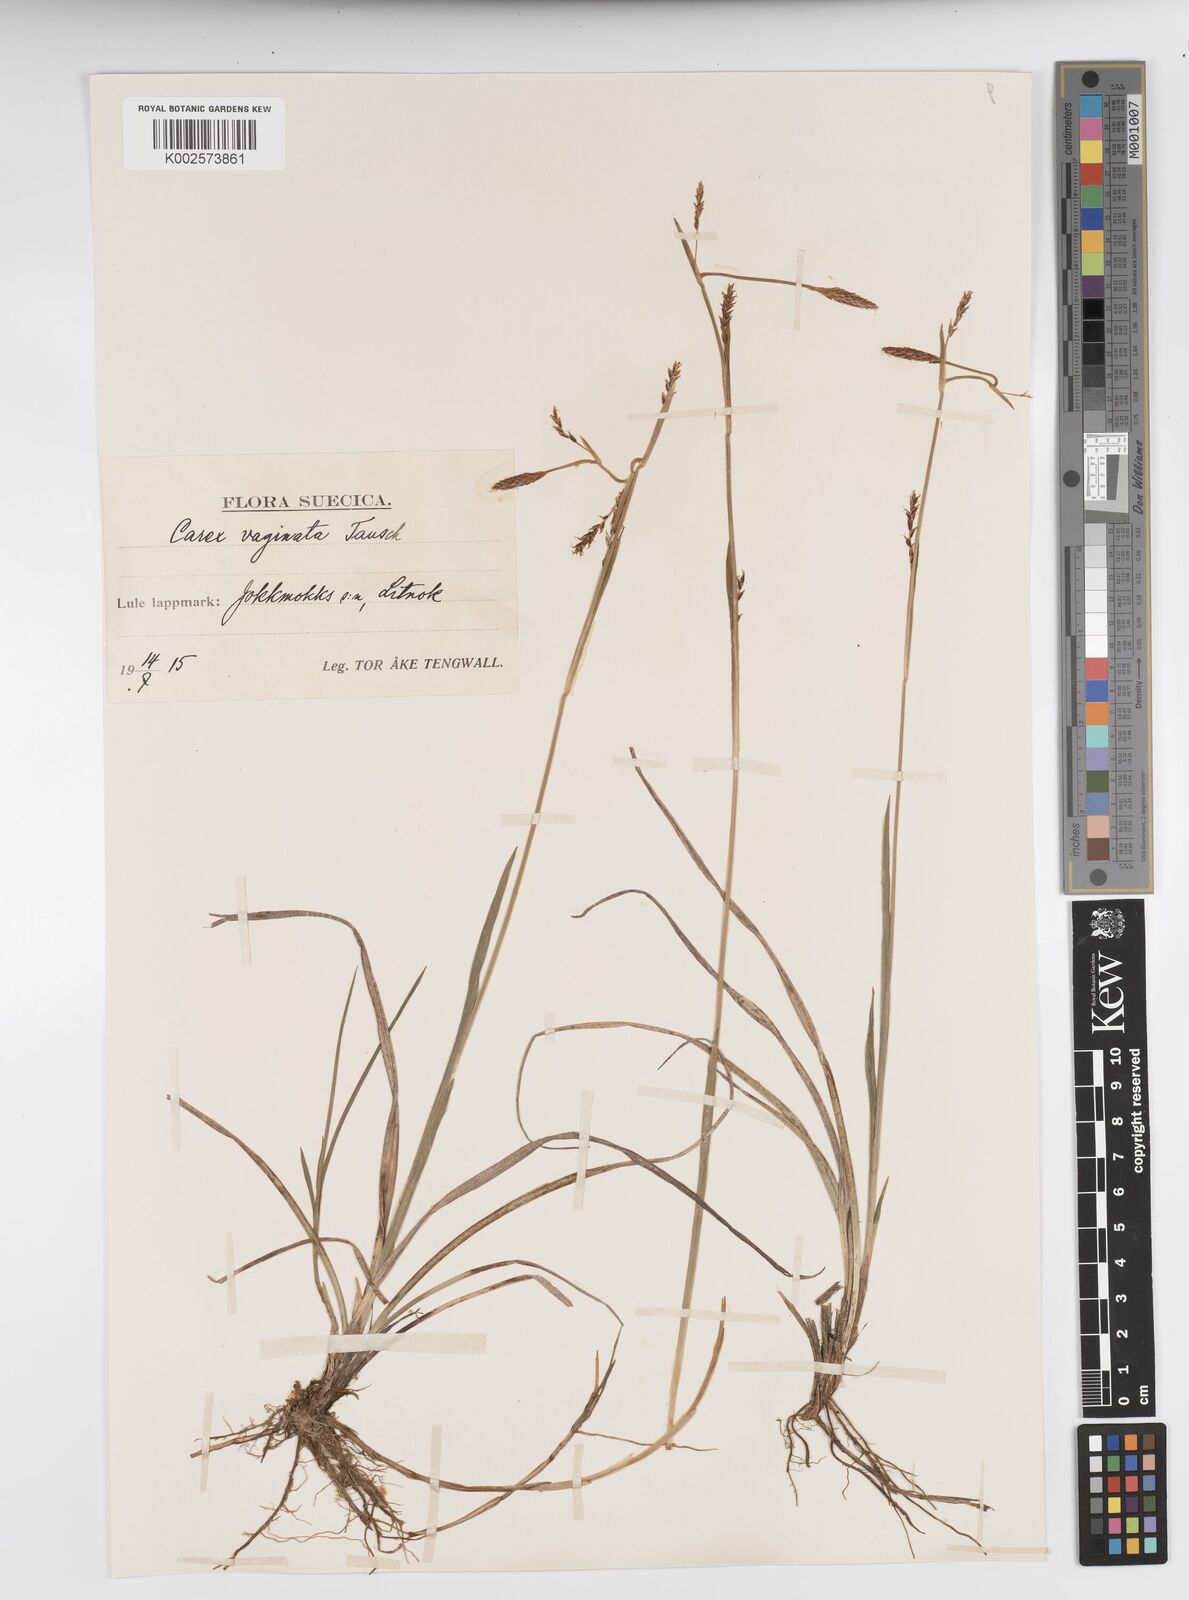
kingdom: Plantae
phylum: Tracheophyta
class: Liliopsida
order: Poales
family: Cyperaceae
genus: Carex
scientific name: Carex vaginata
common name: Sheathed sedge
